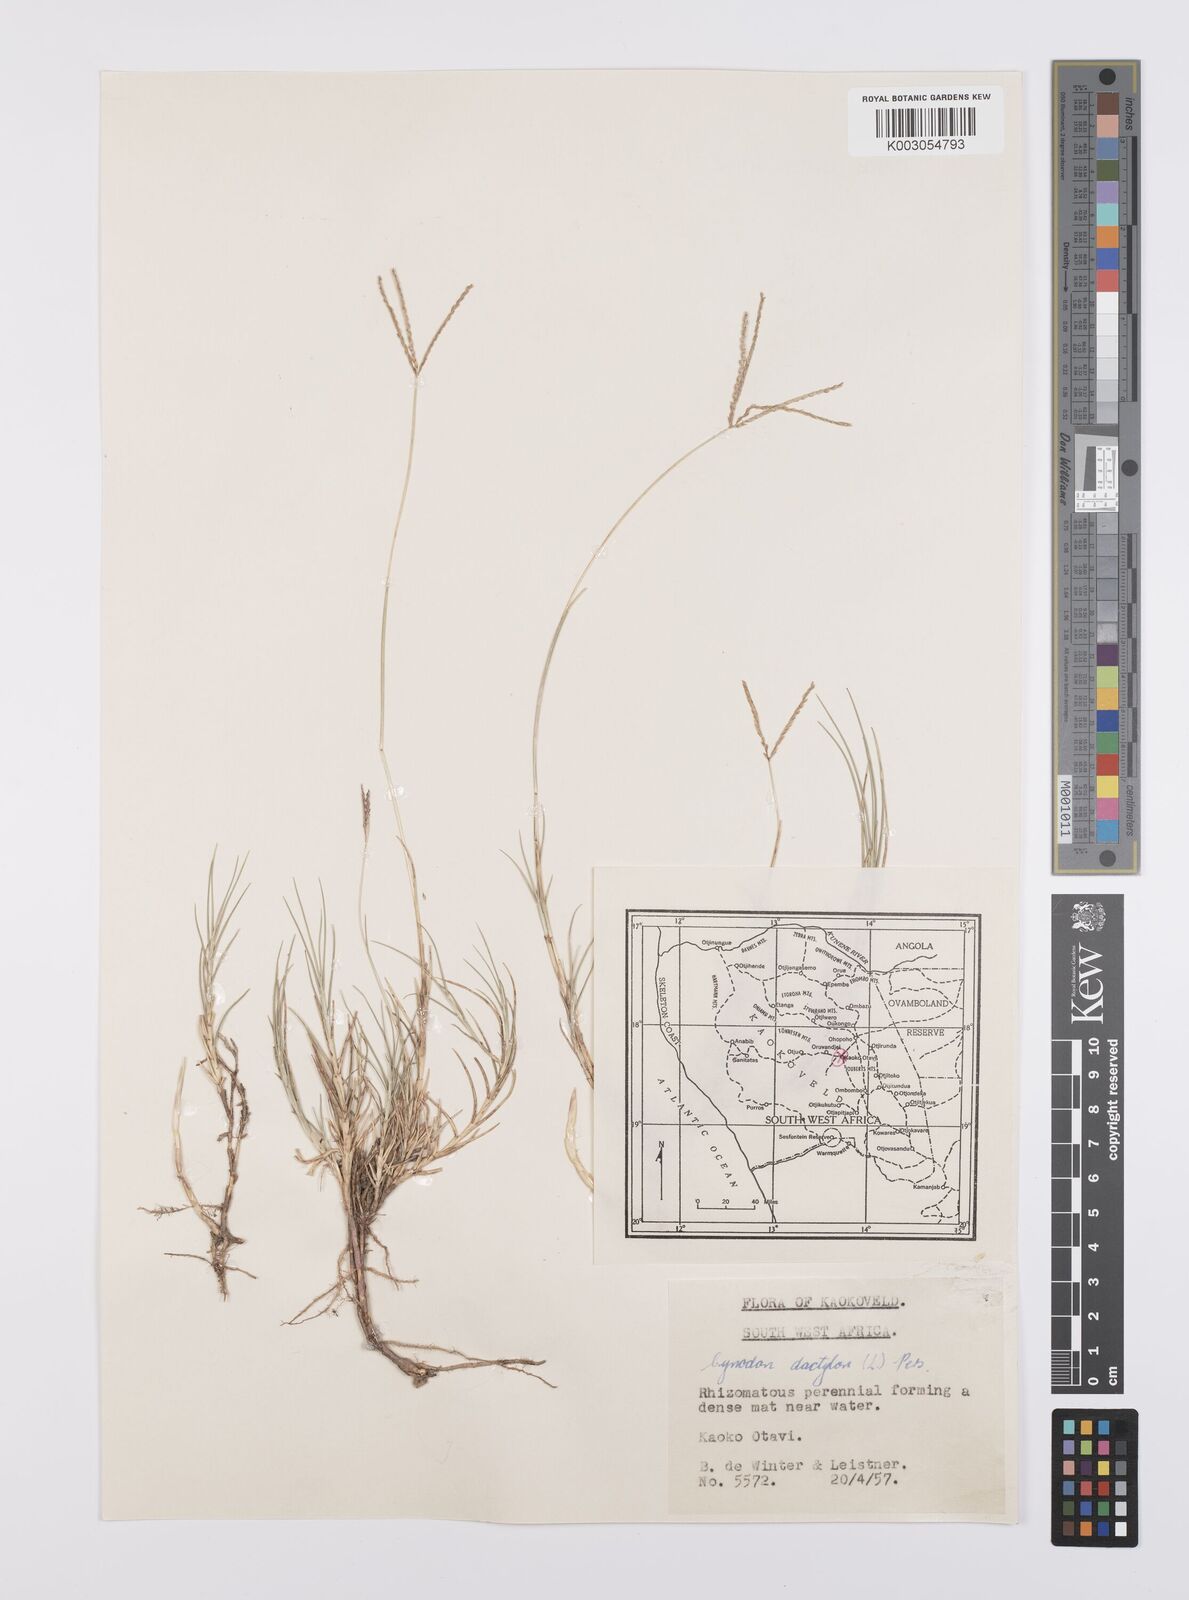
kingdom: Plantae
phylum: Tracheophyta
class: Liliopsida
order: Poales
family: Poaceae
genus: Cynodon
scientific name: Cynodon dactylon
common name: Bermuda grass
